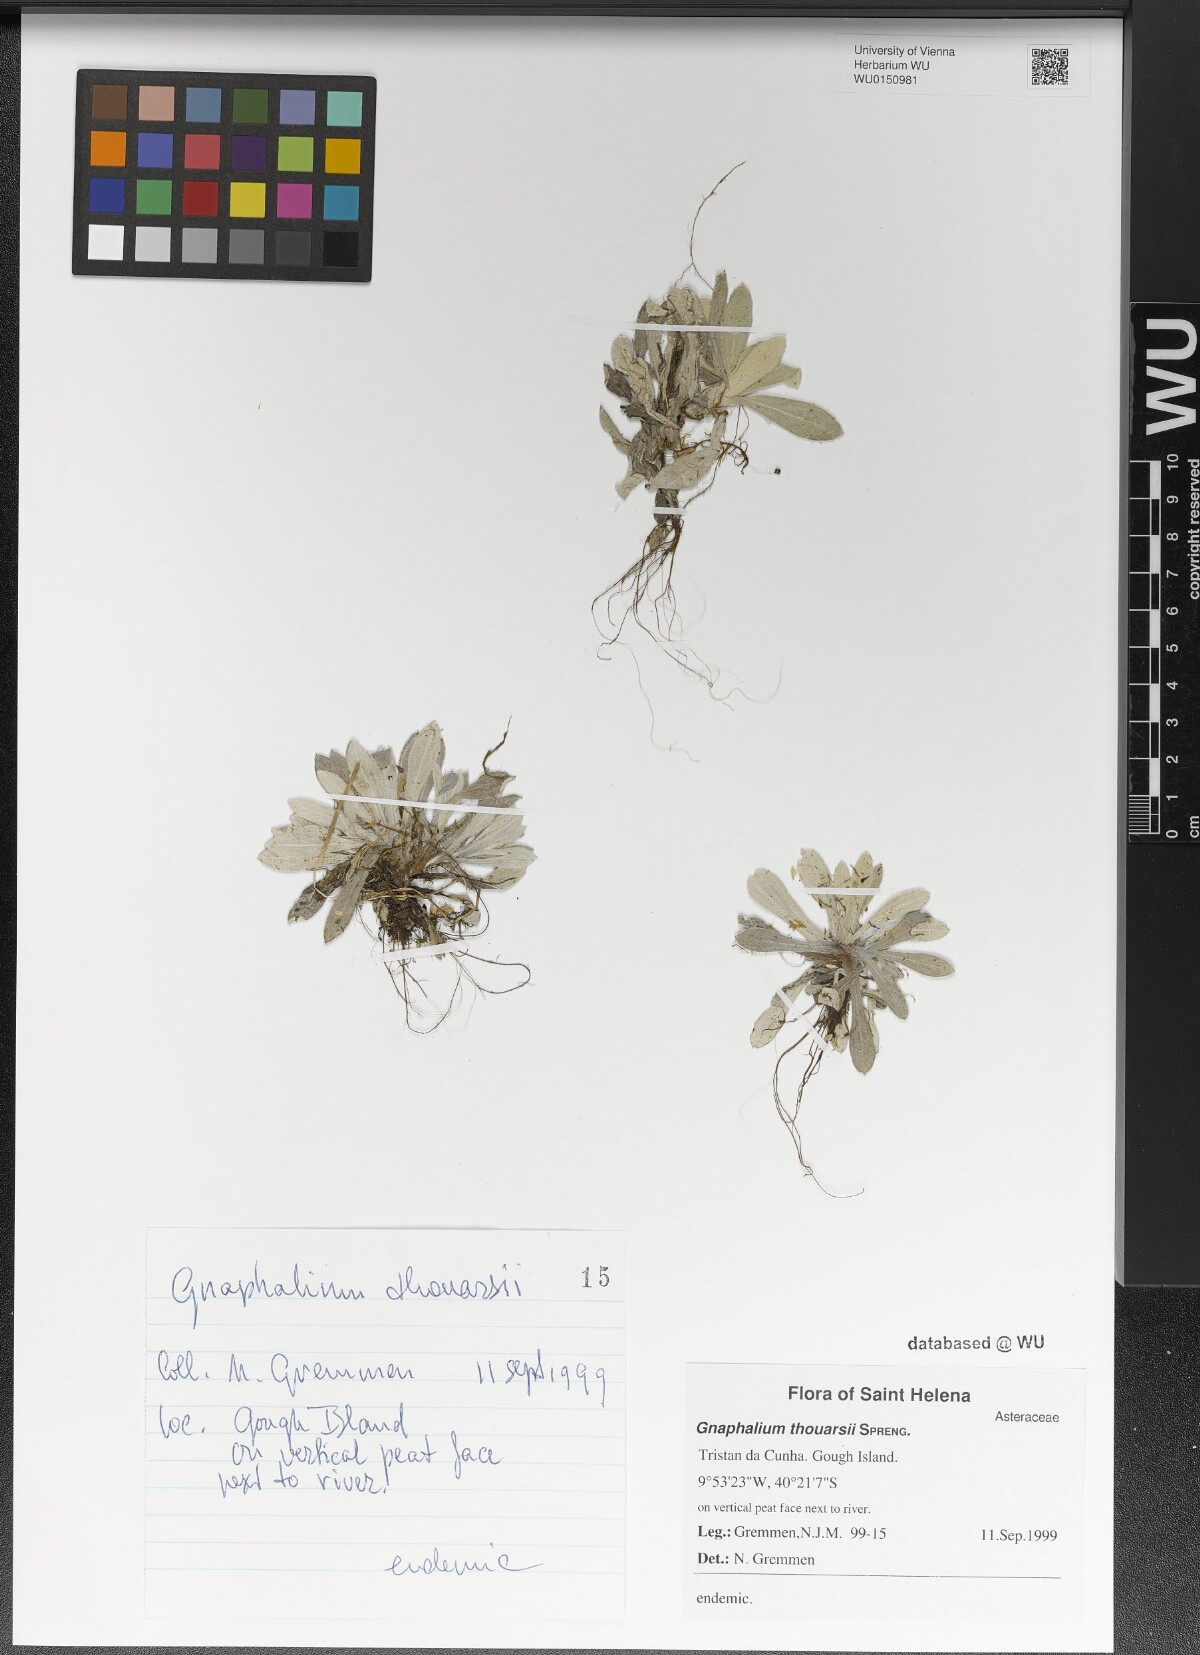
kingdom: Plantae
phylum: Tracheophyta
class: Magnoliopsida
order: Asterales
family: Asteraceae
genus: Gamochaeta
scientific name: Gamochaeta thouarsii
